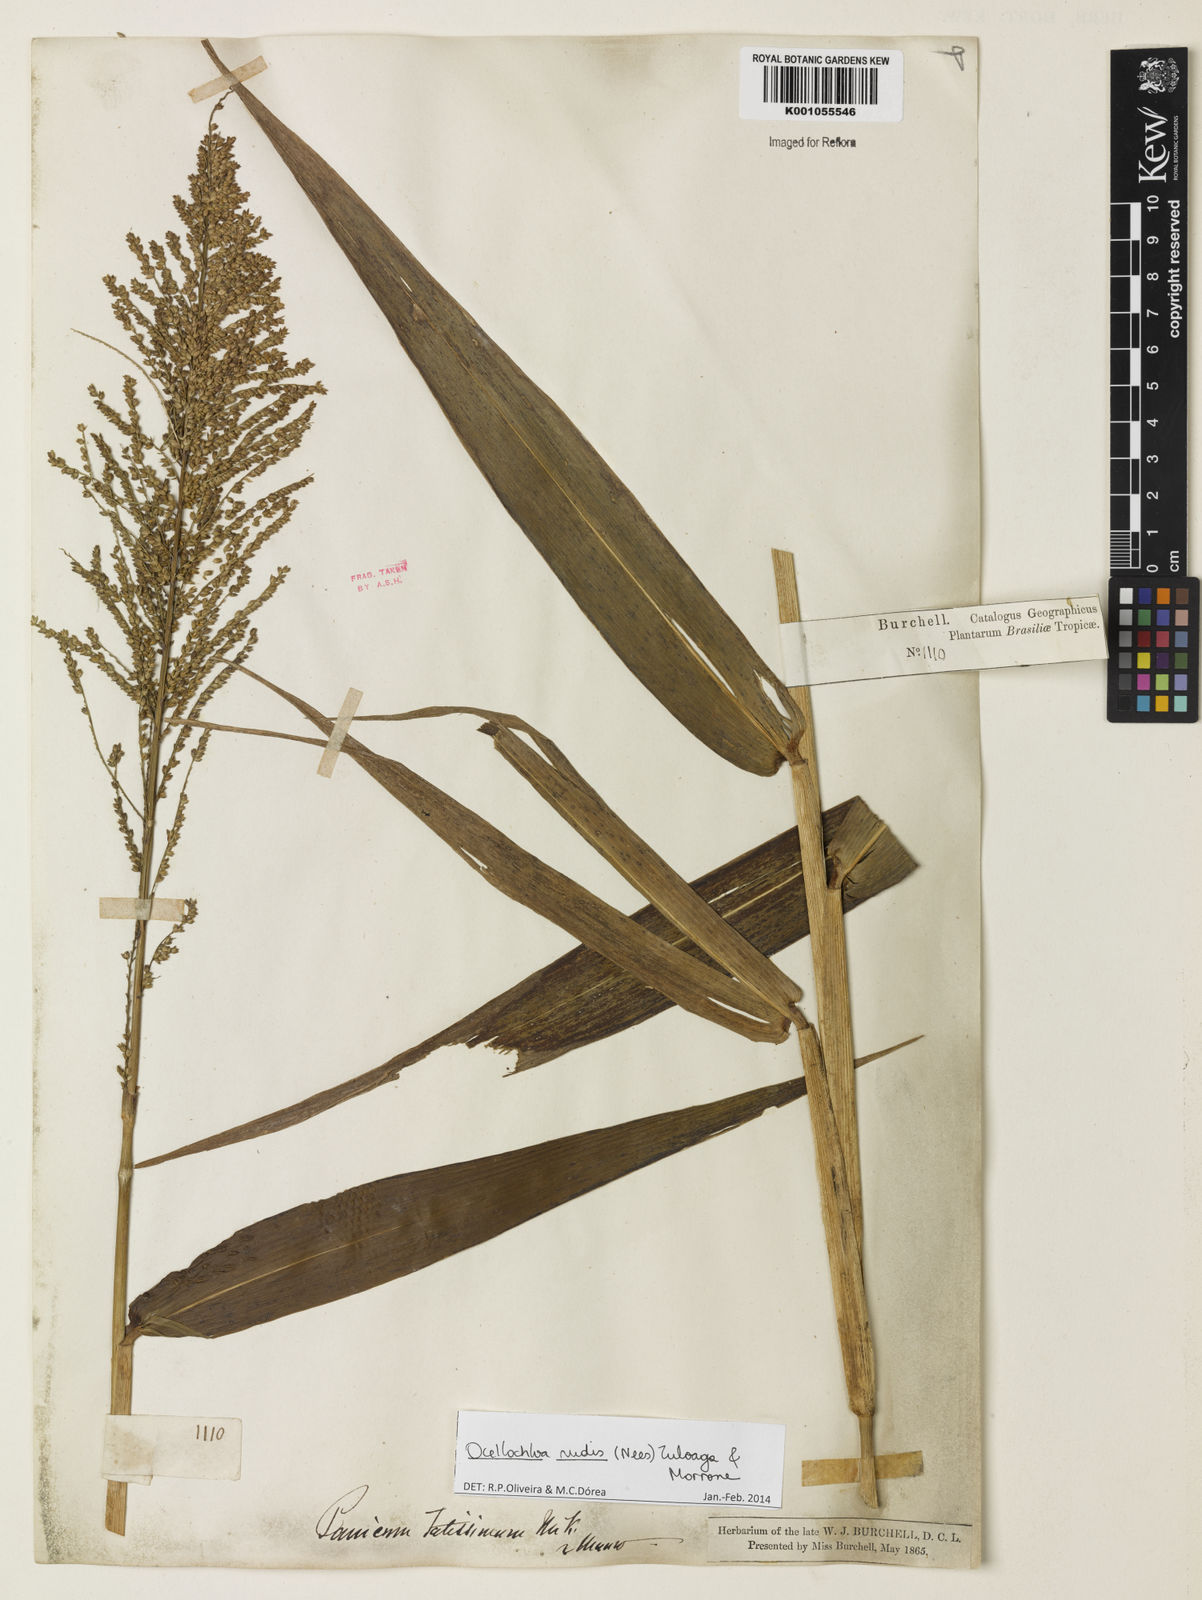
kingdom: Plantae
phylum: Tracheophyta
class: Liliopsida
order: Poales
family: Poaceae
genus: Ocellochloa
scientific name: Ocellochloa rudis
